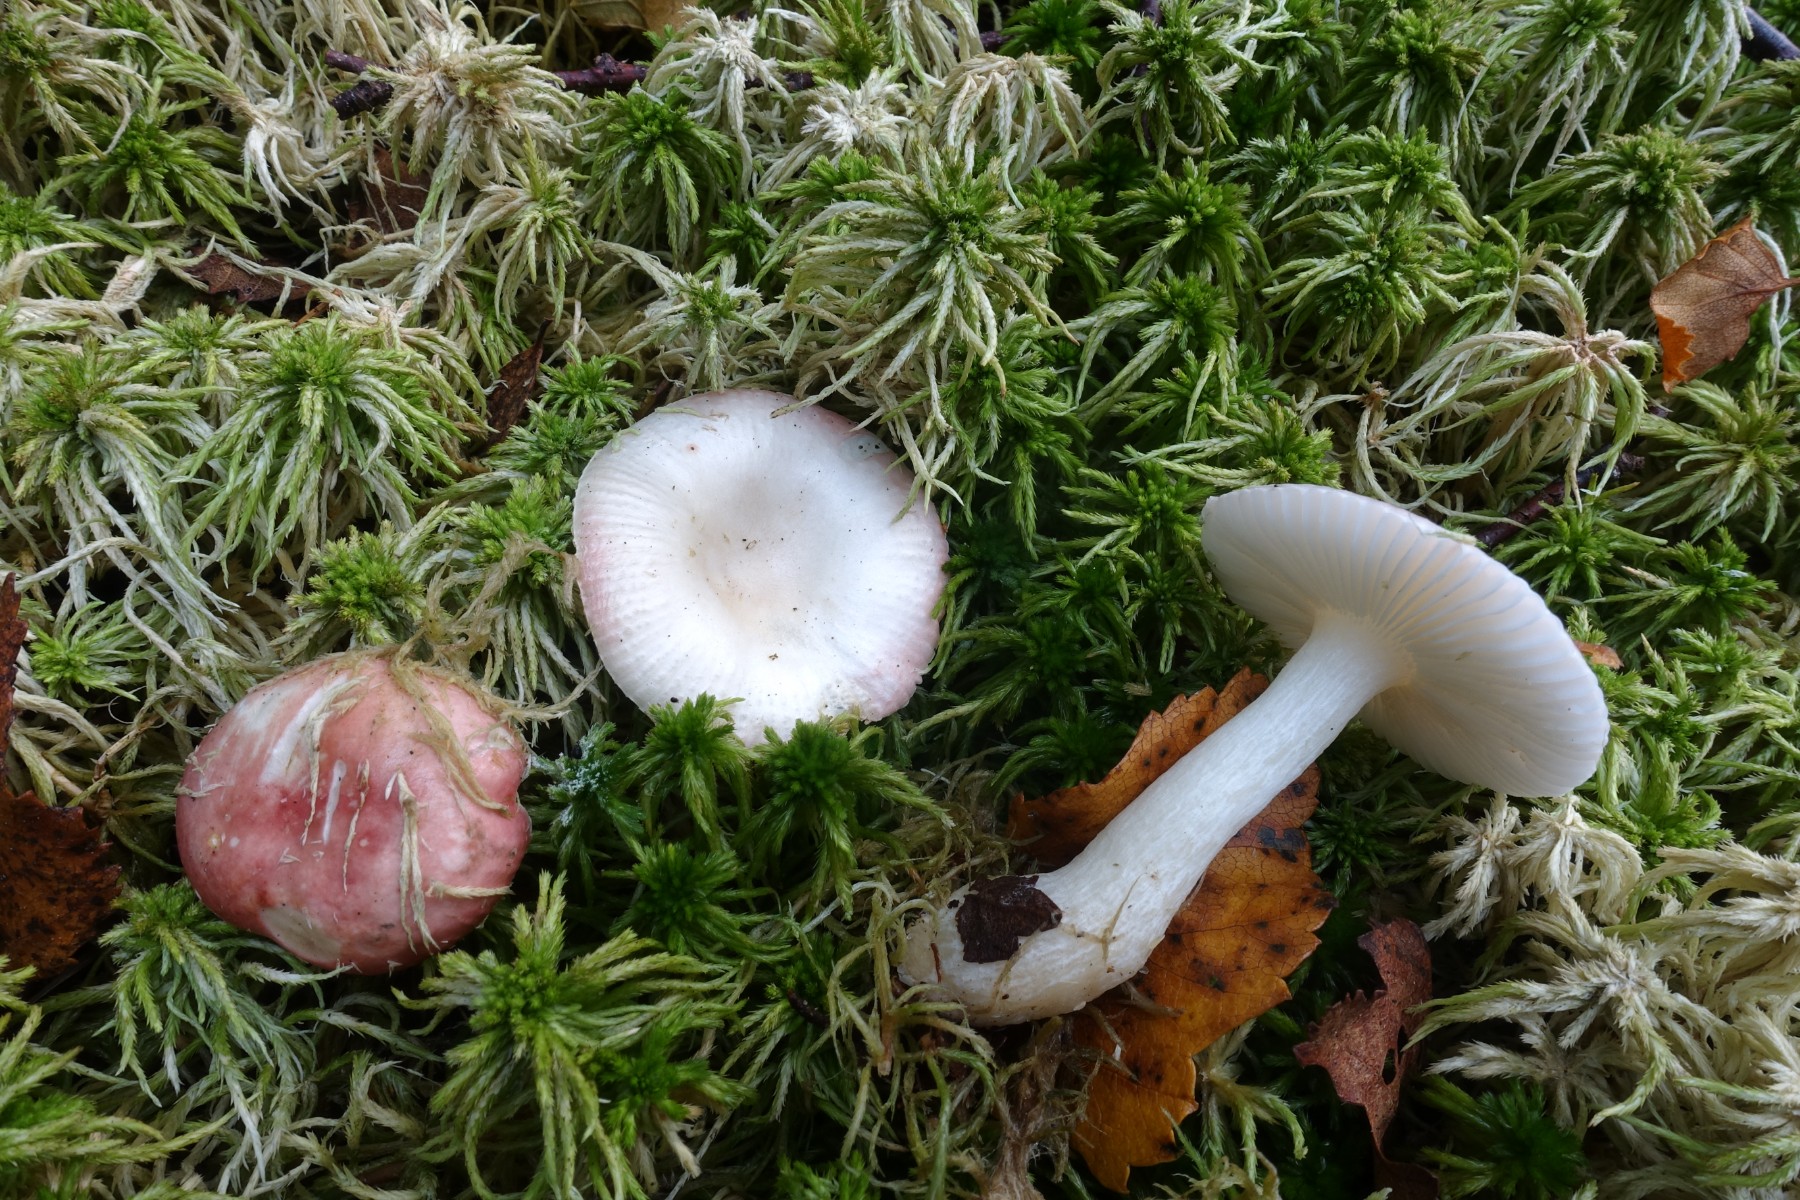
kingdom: Fungi
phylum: Basidiomycota
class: Agaricomycetes
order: Russulales
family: Russulaceae
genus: Russula
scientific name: Russula betularum
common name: bleg gift-skørhat
